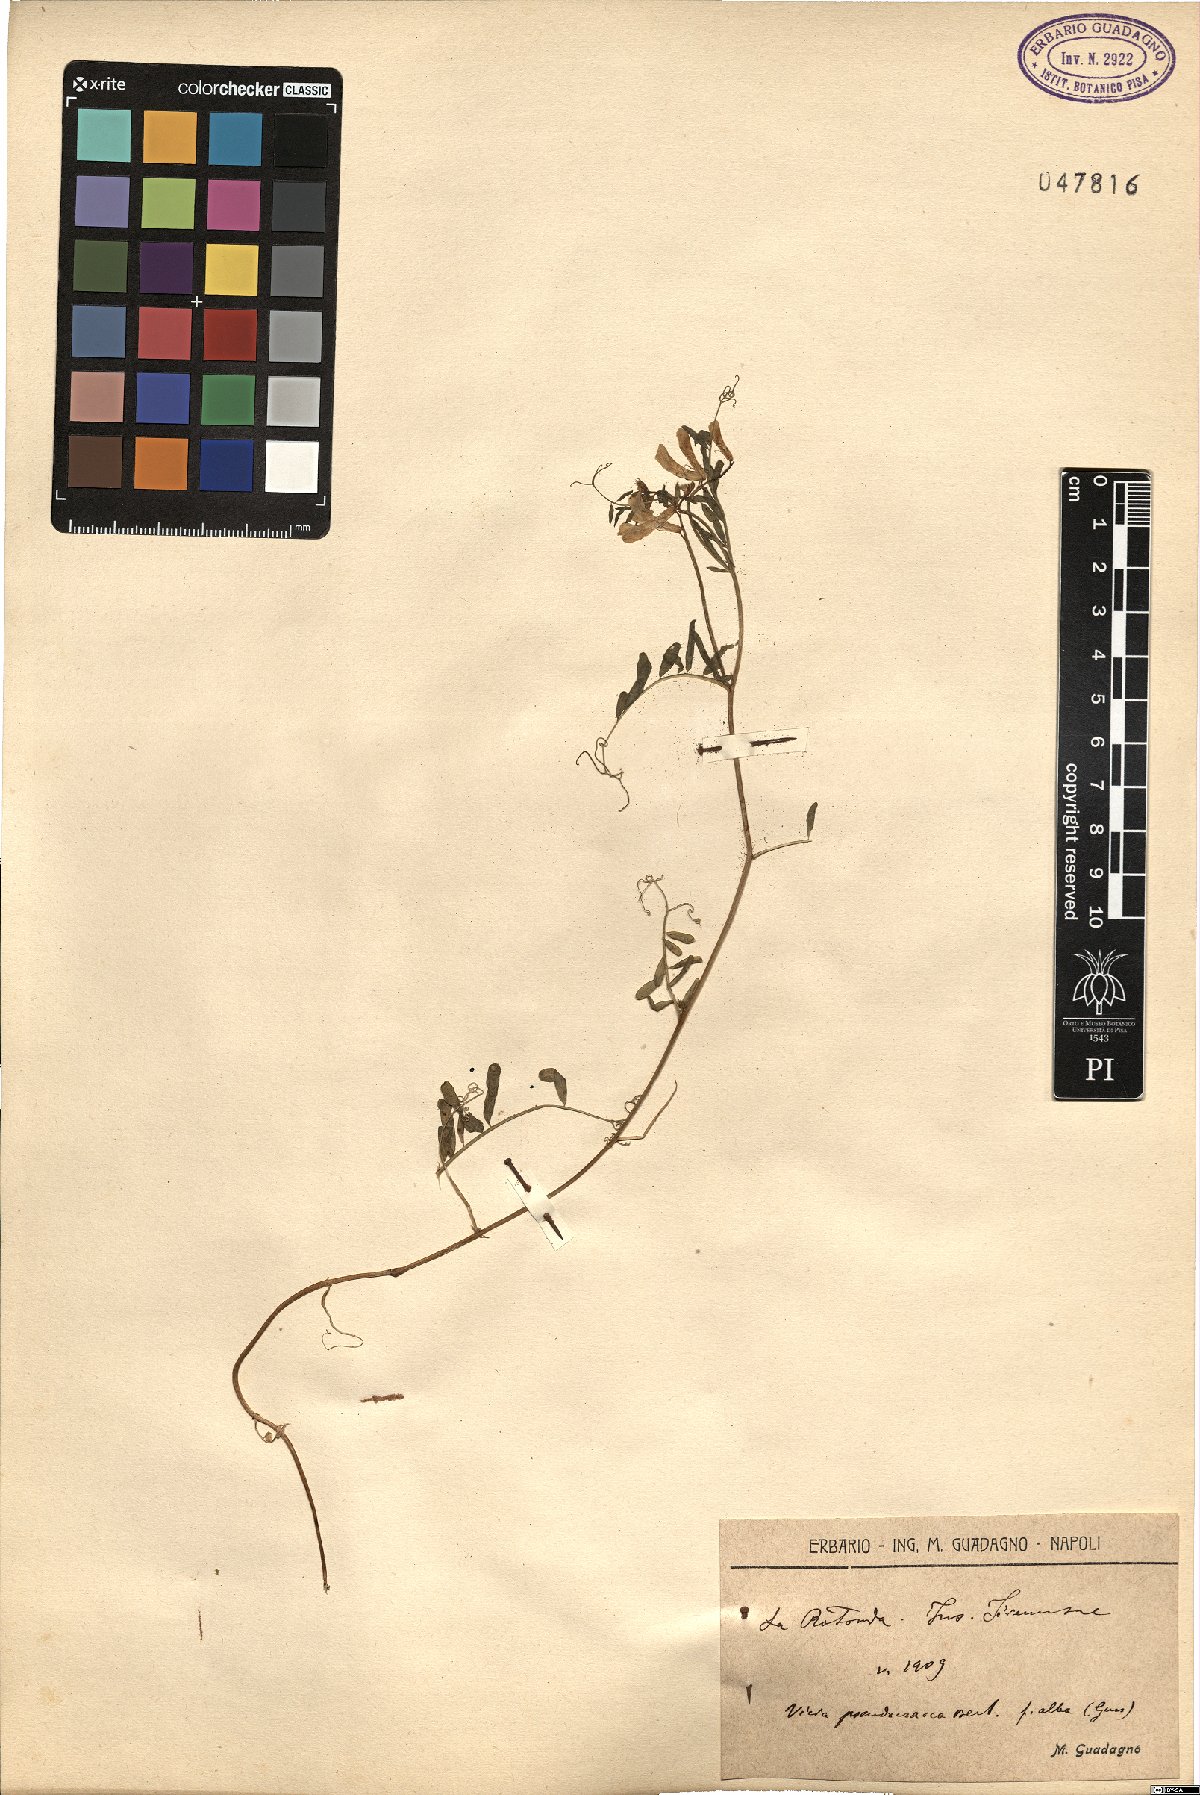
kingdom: Plantae
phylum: Tracheophyta
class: Magnoliopsida
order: Fabales
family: Fabaceae
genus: Vicia
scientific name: Vicia villosa
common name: Fodder vetch
